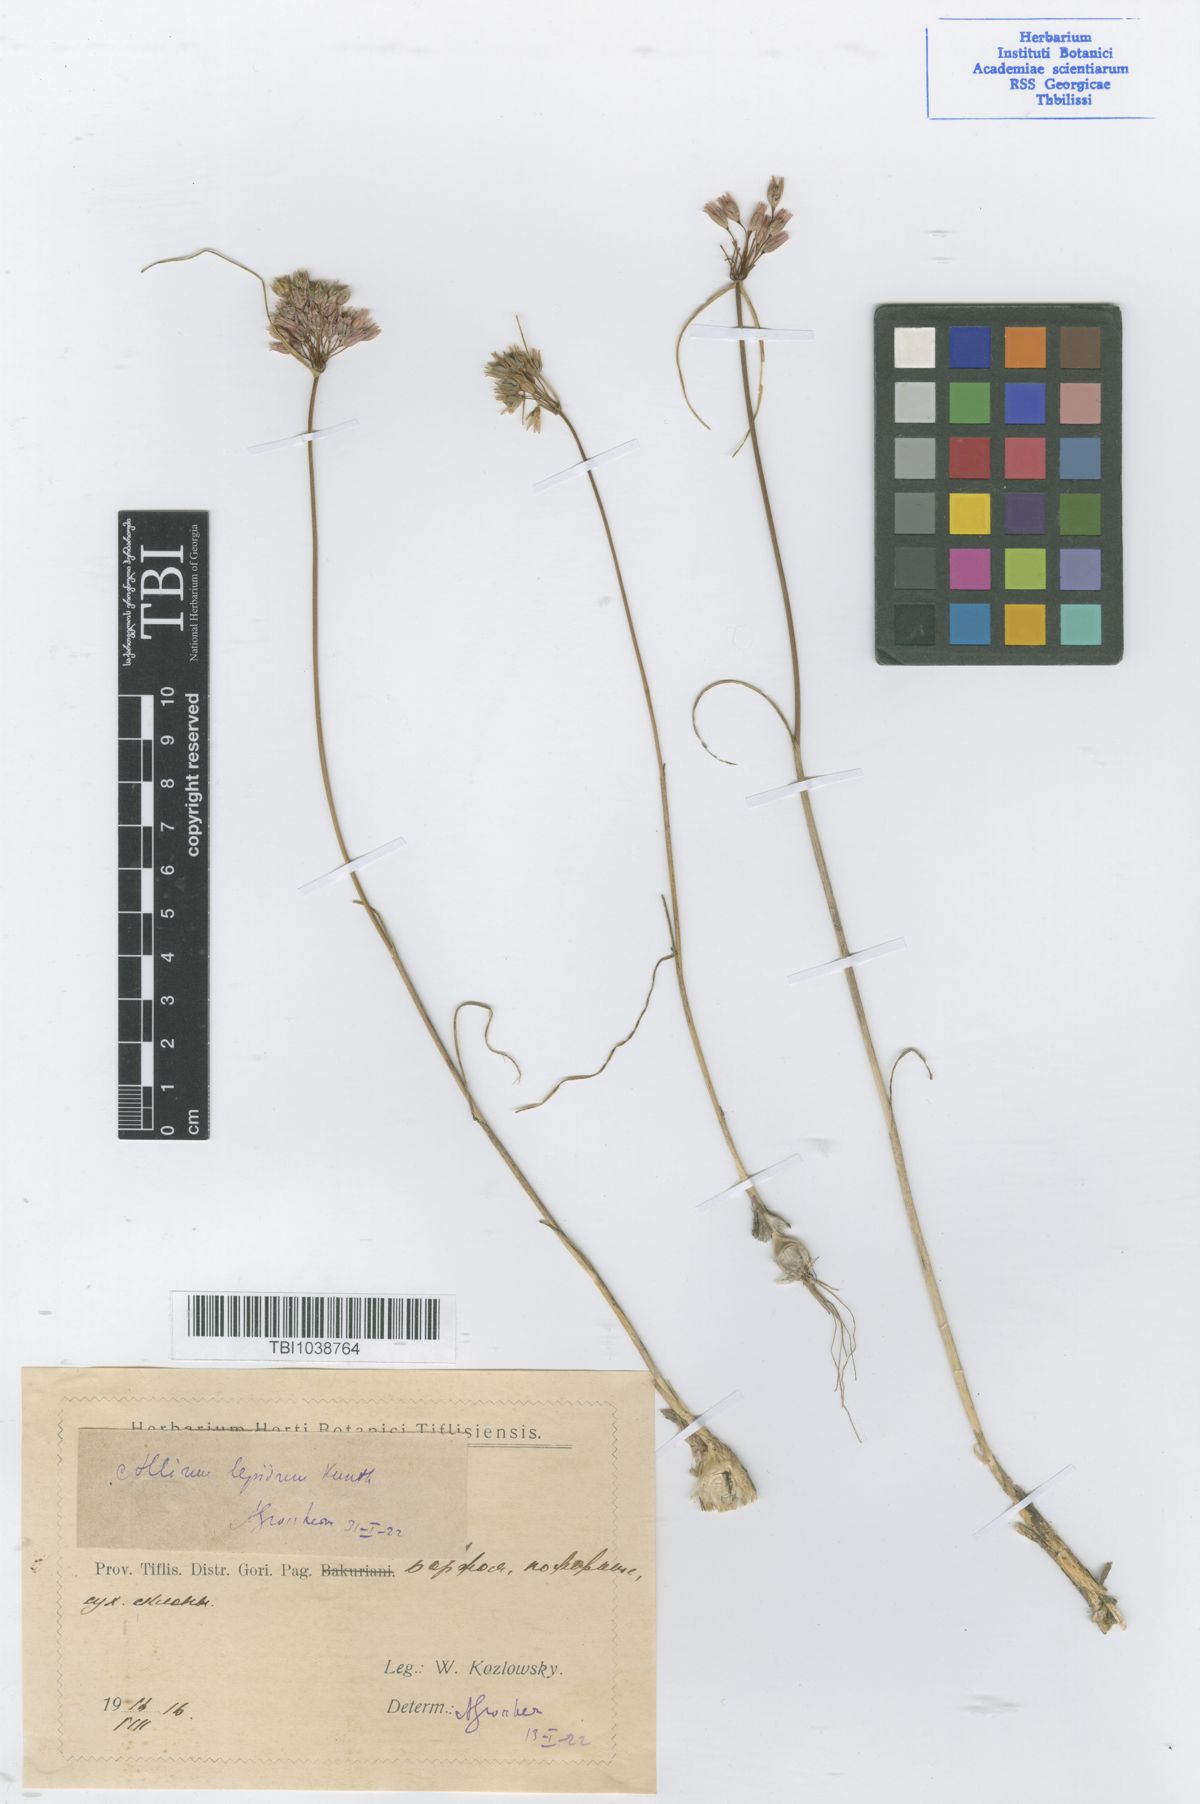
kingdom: Plantae
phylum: Tracheophyta
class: Liliopsida
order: Asparagales
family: Amaryllidaceae
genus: Allium
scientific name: Allium kunthianum
